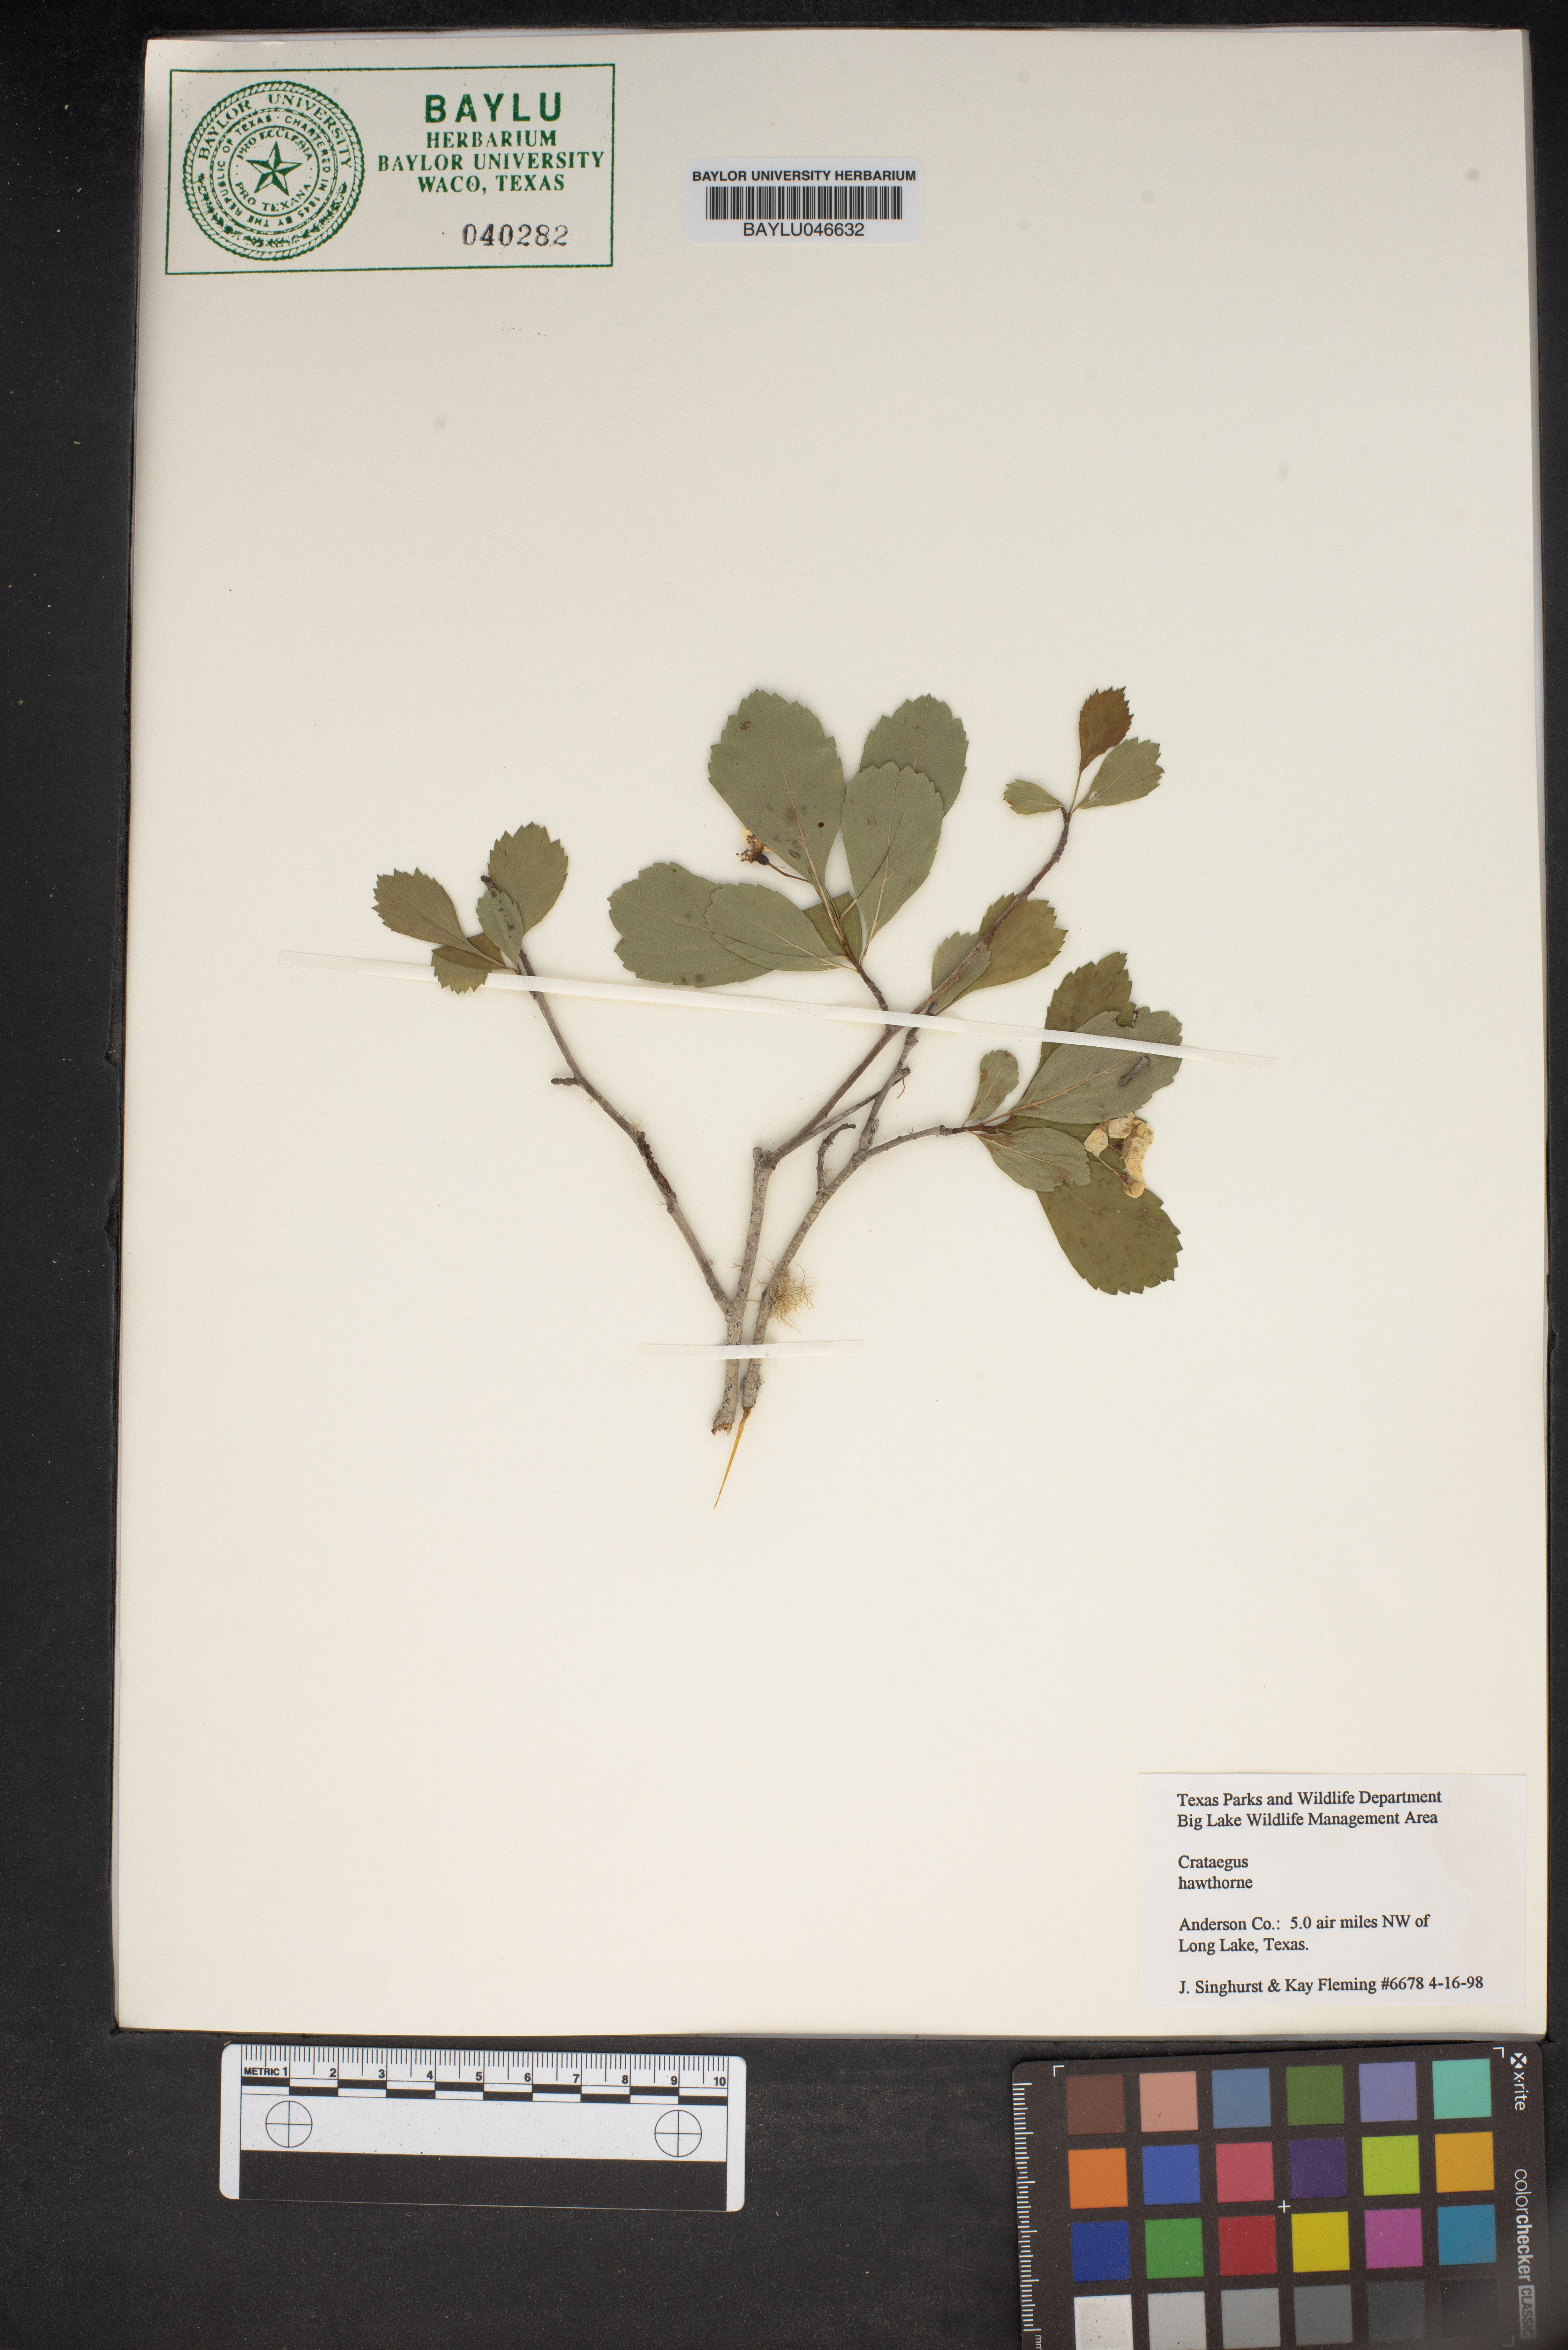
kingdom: Plantae
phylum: Tracheophyta
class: Magnoliopsida
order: Rosales
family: Rosaceae
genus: Crataegus
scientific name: Crataegus
